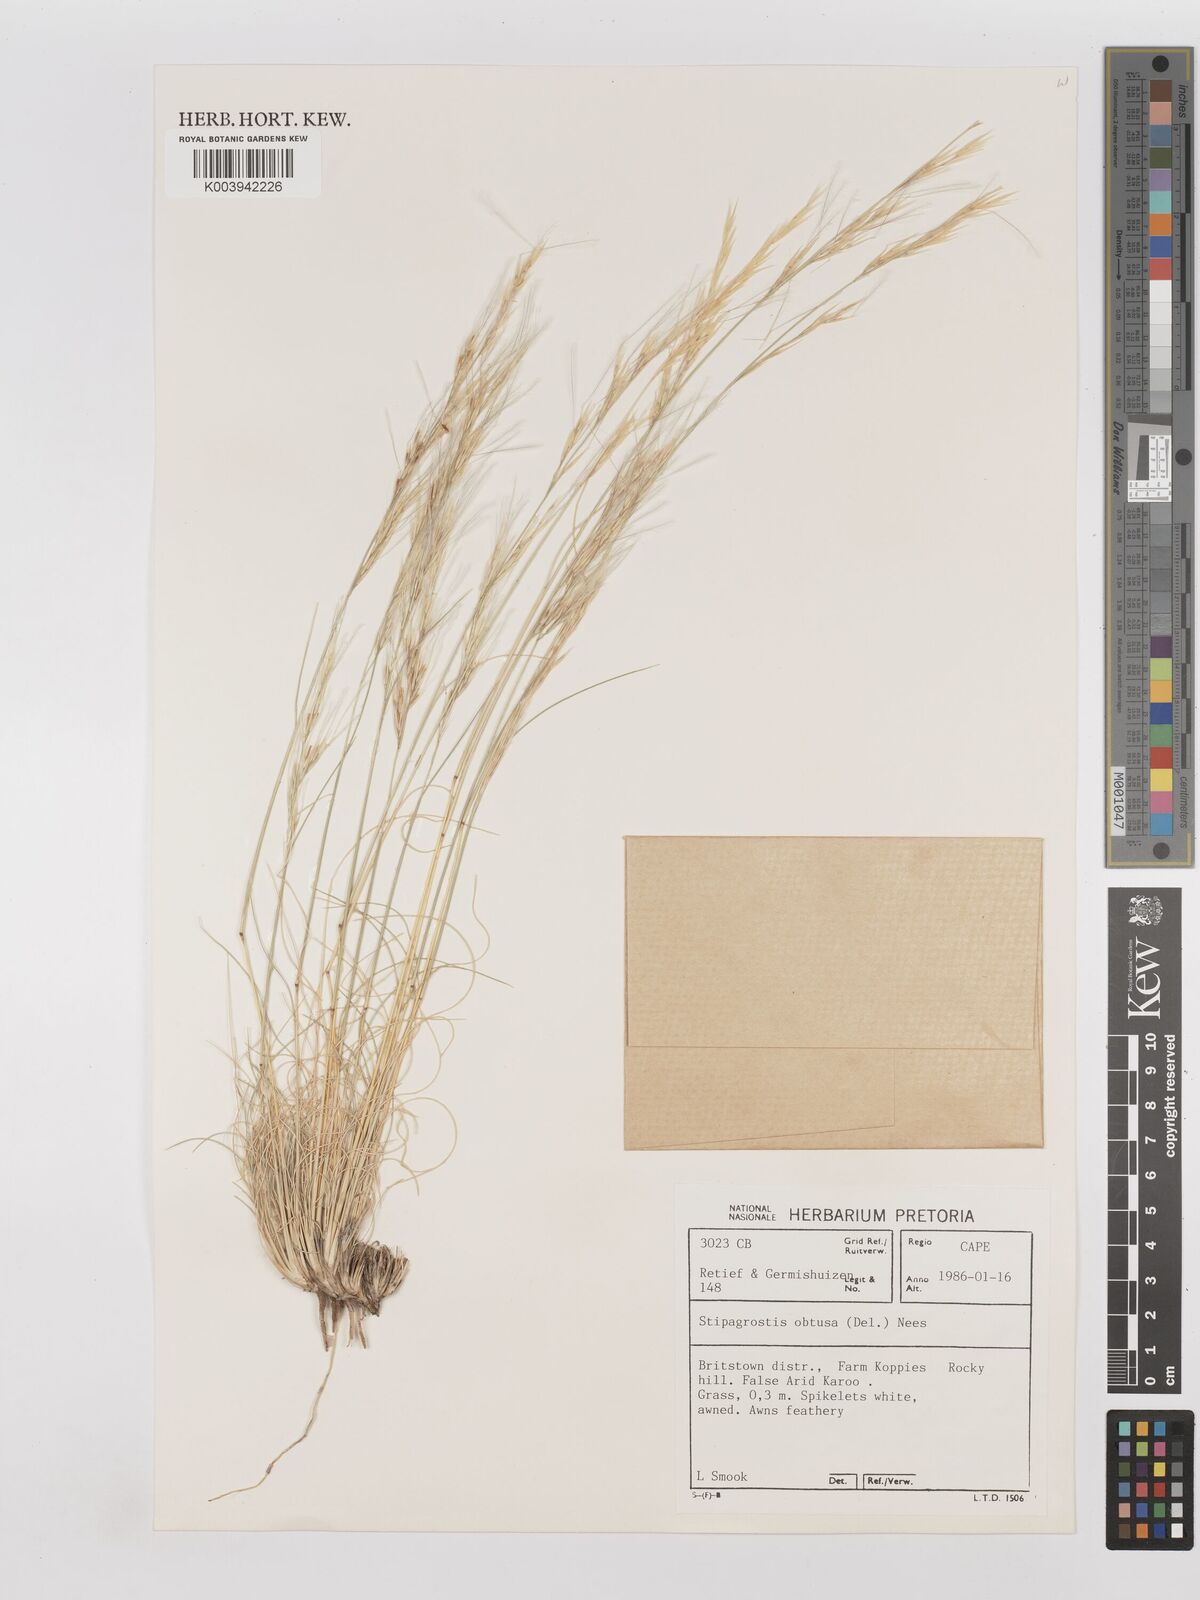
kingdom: Plantae
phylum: Tracheophyta
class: Liliopsida
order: Poales
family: Poaceae
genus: Stipagrostis
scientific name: Stipagrostis obtusa
